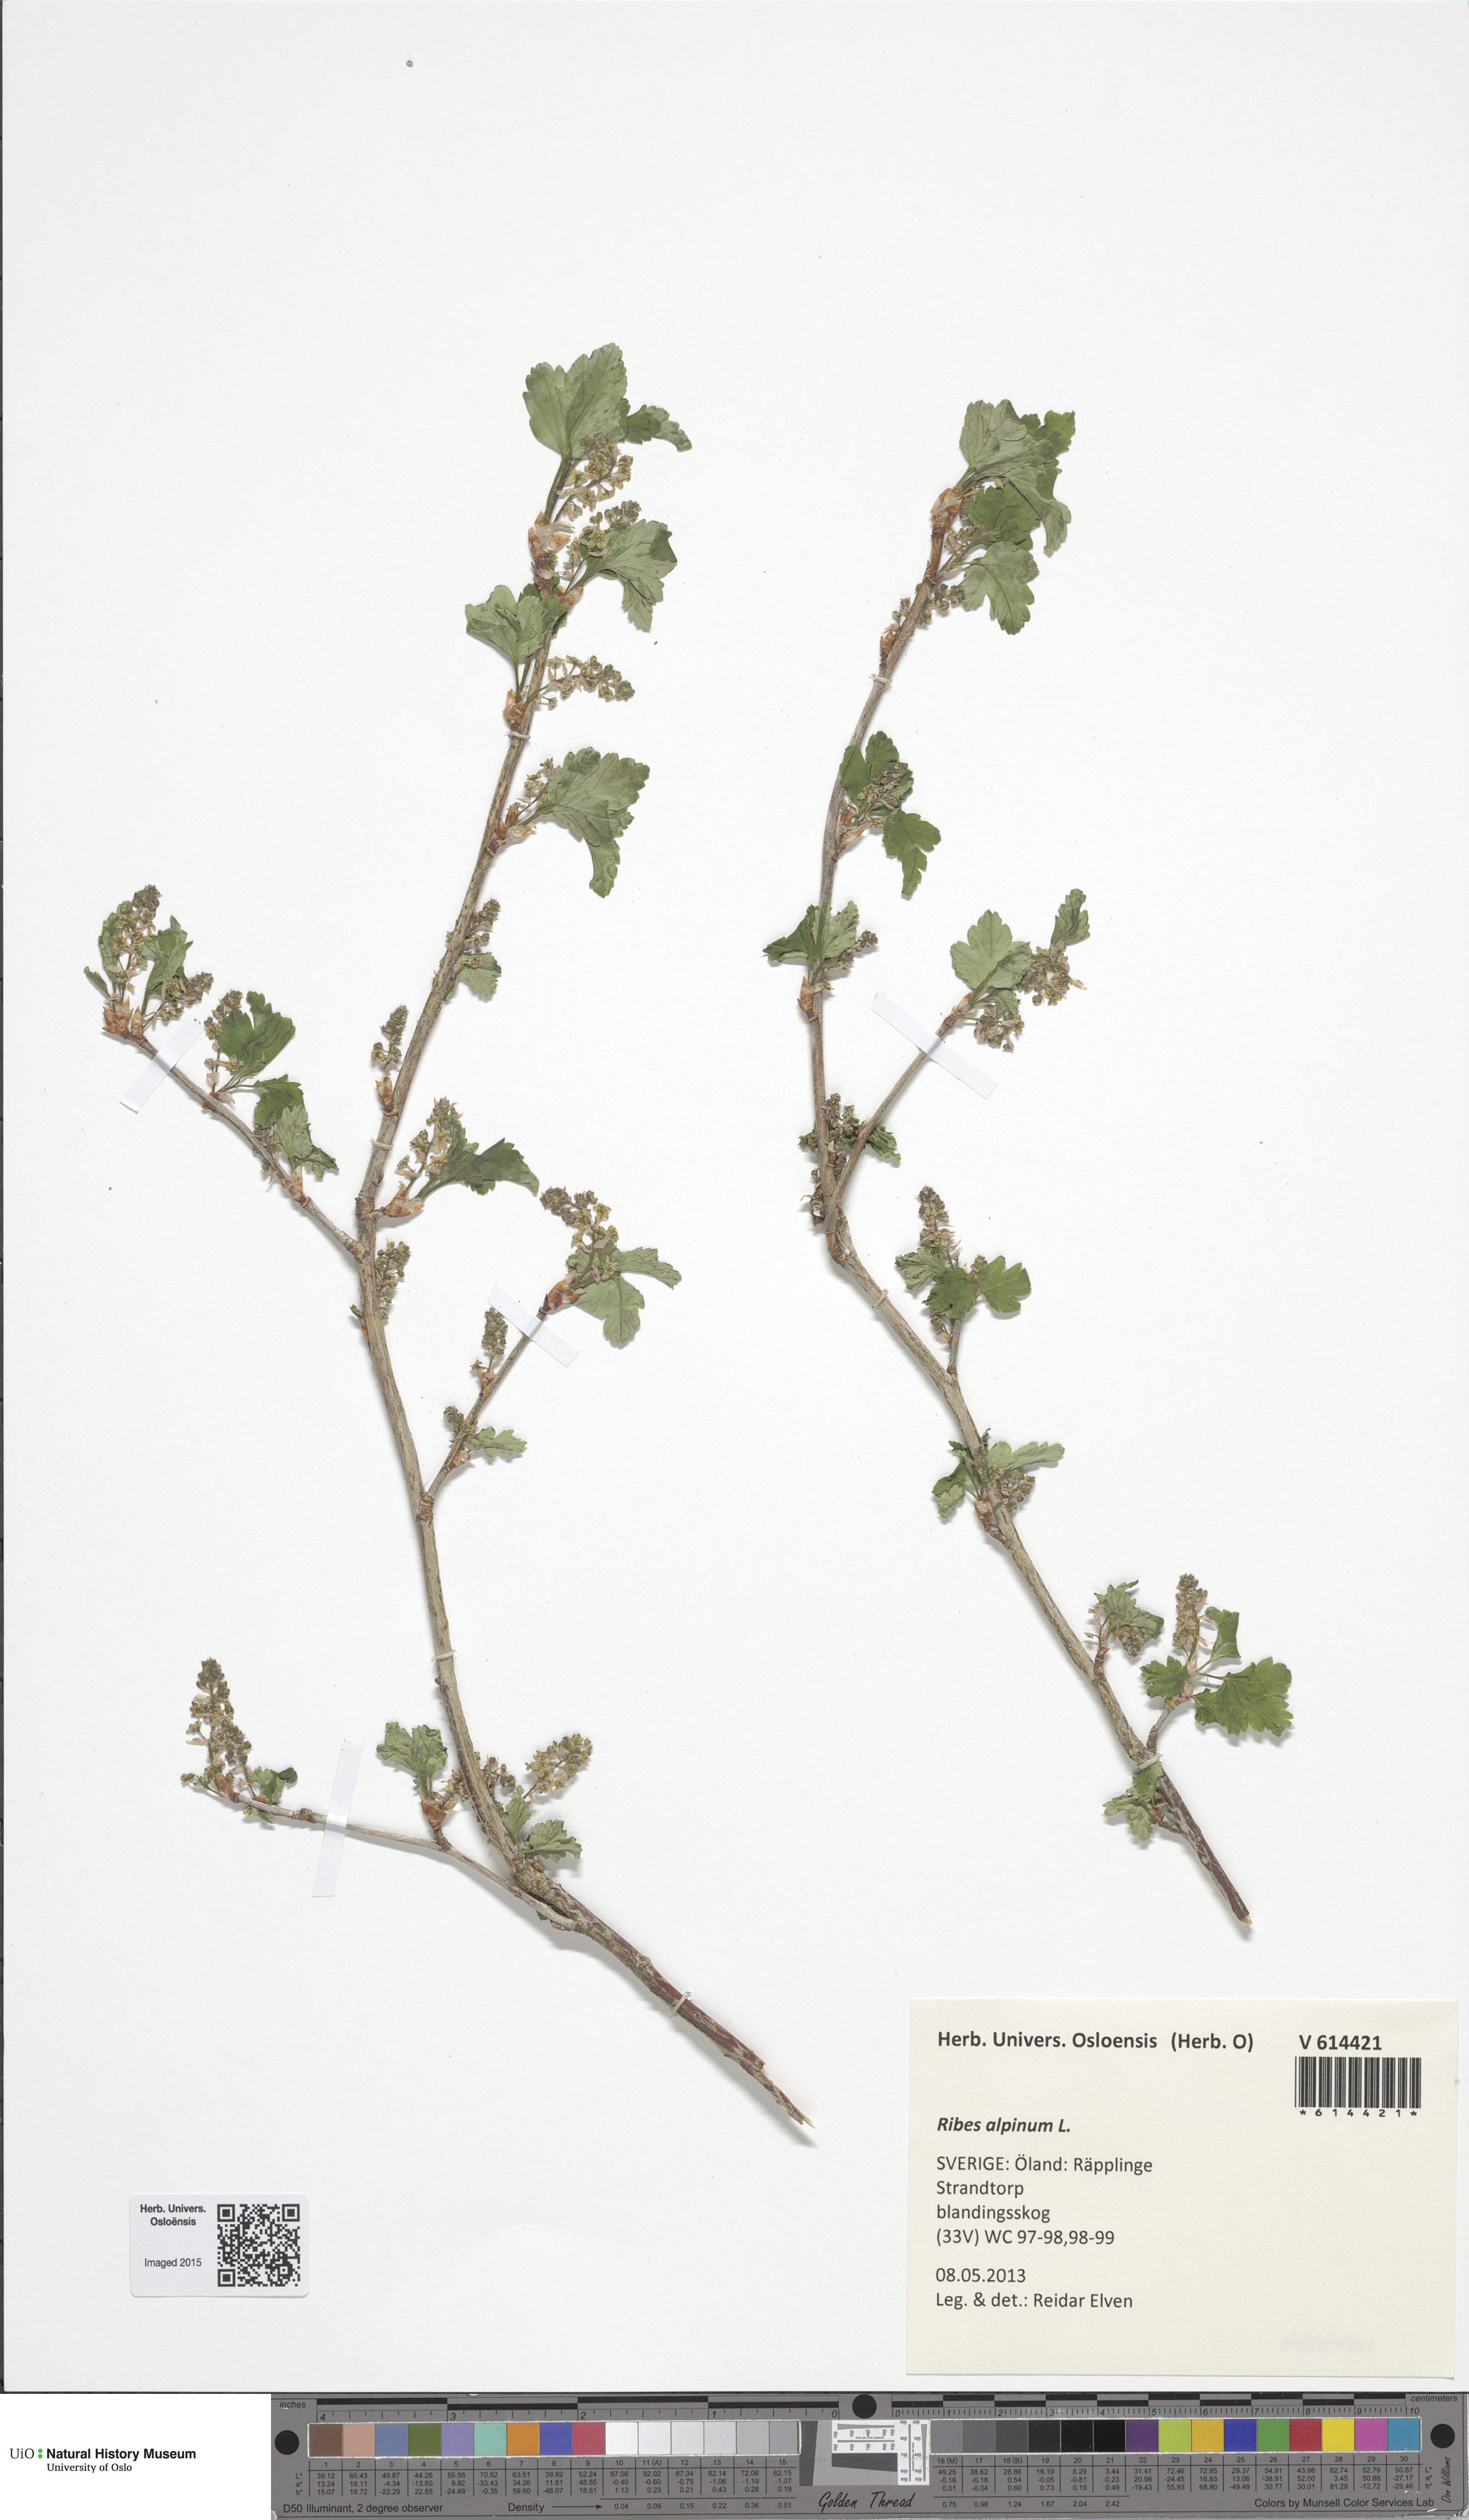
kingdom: Plantae
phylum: Tracheophyta
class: Magnoliopsida
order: Saxifragales
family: Grossulariaceae
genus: Ribes
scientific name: Ribes alpinum
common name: Alpine currant
